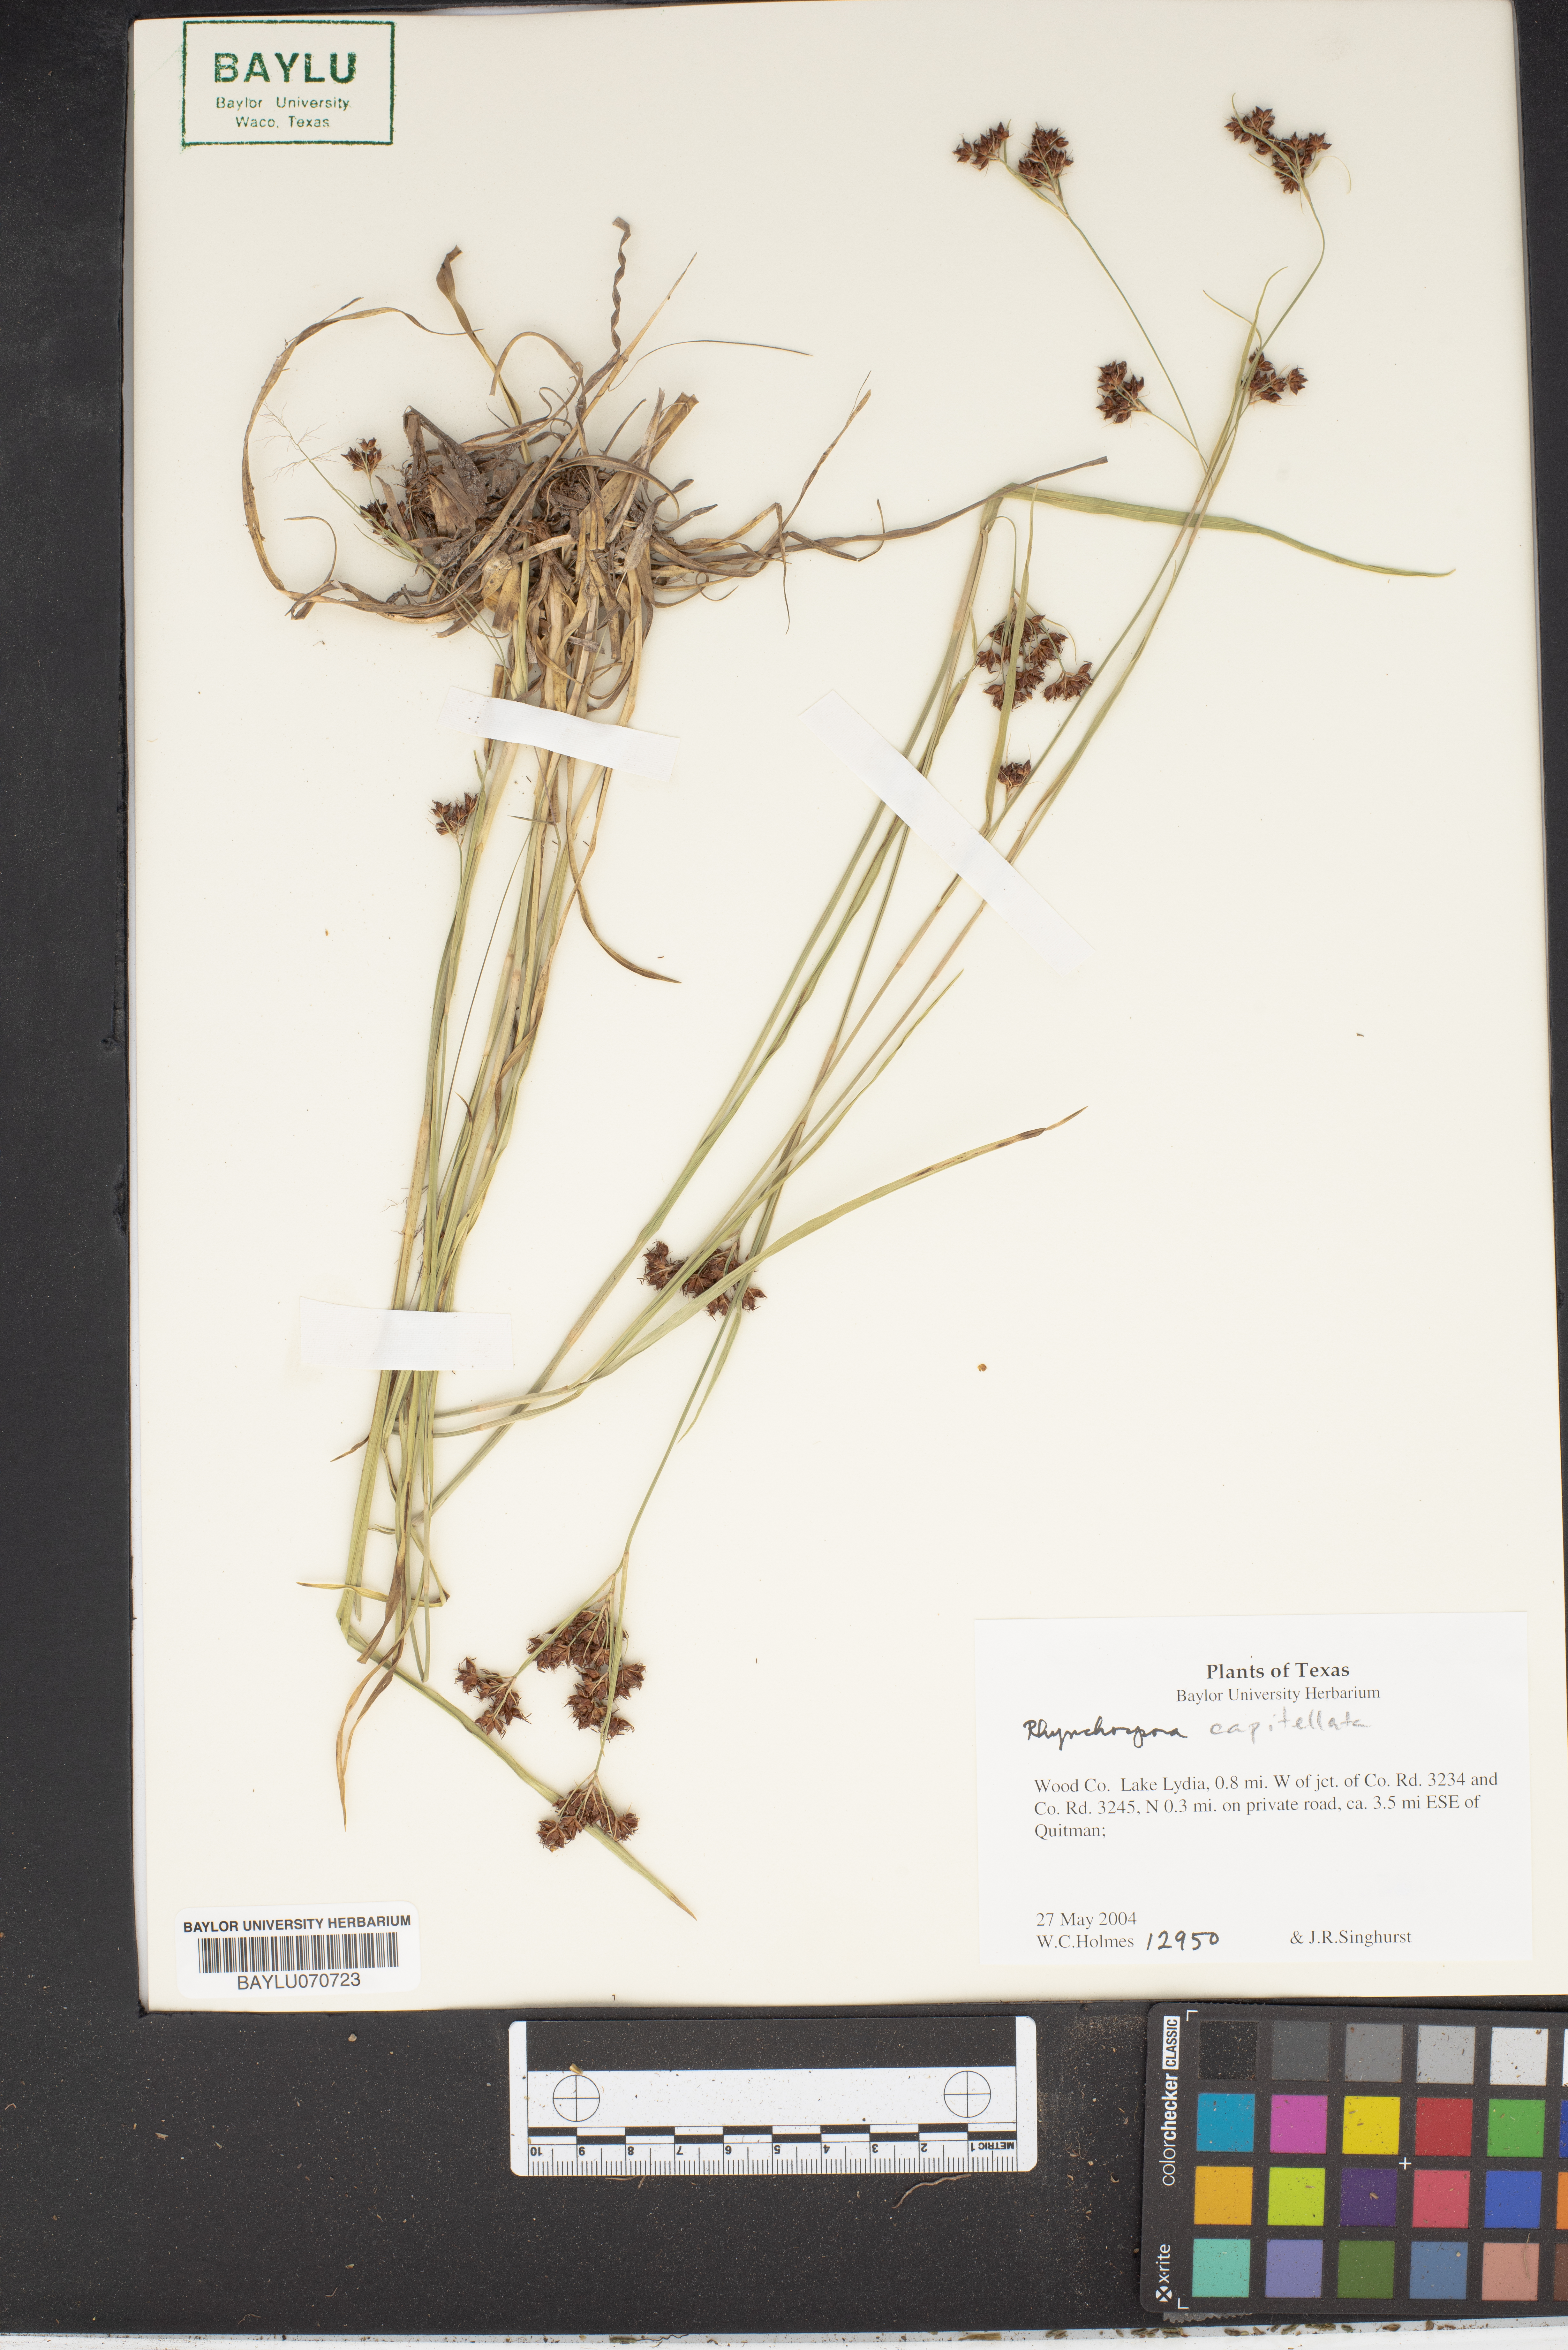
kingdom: Plantae
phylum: Tracheophyta
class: Liliopsida
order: Poales
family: Cyperaceae
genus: Rhynchospora
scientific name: Rhynchospora capitellata
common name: Brownish beaksedge
